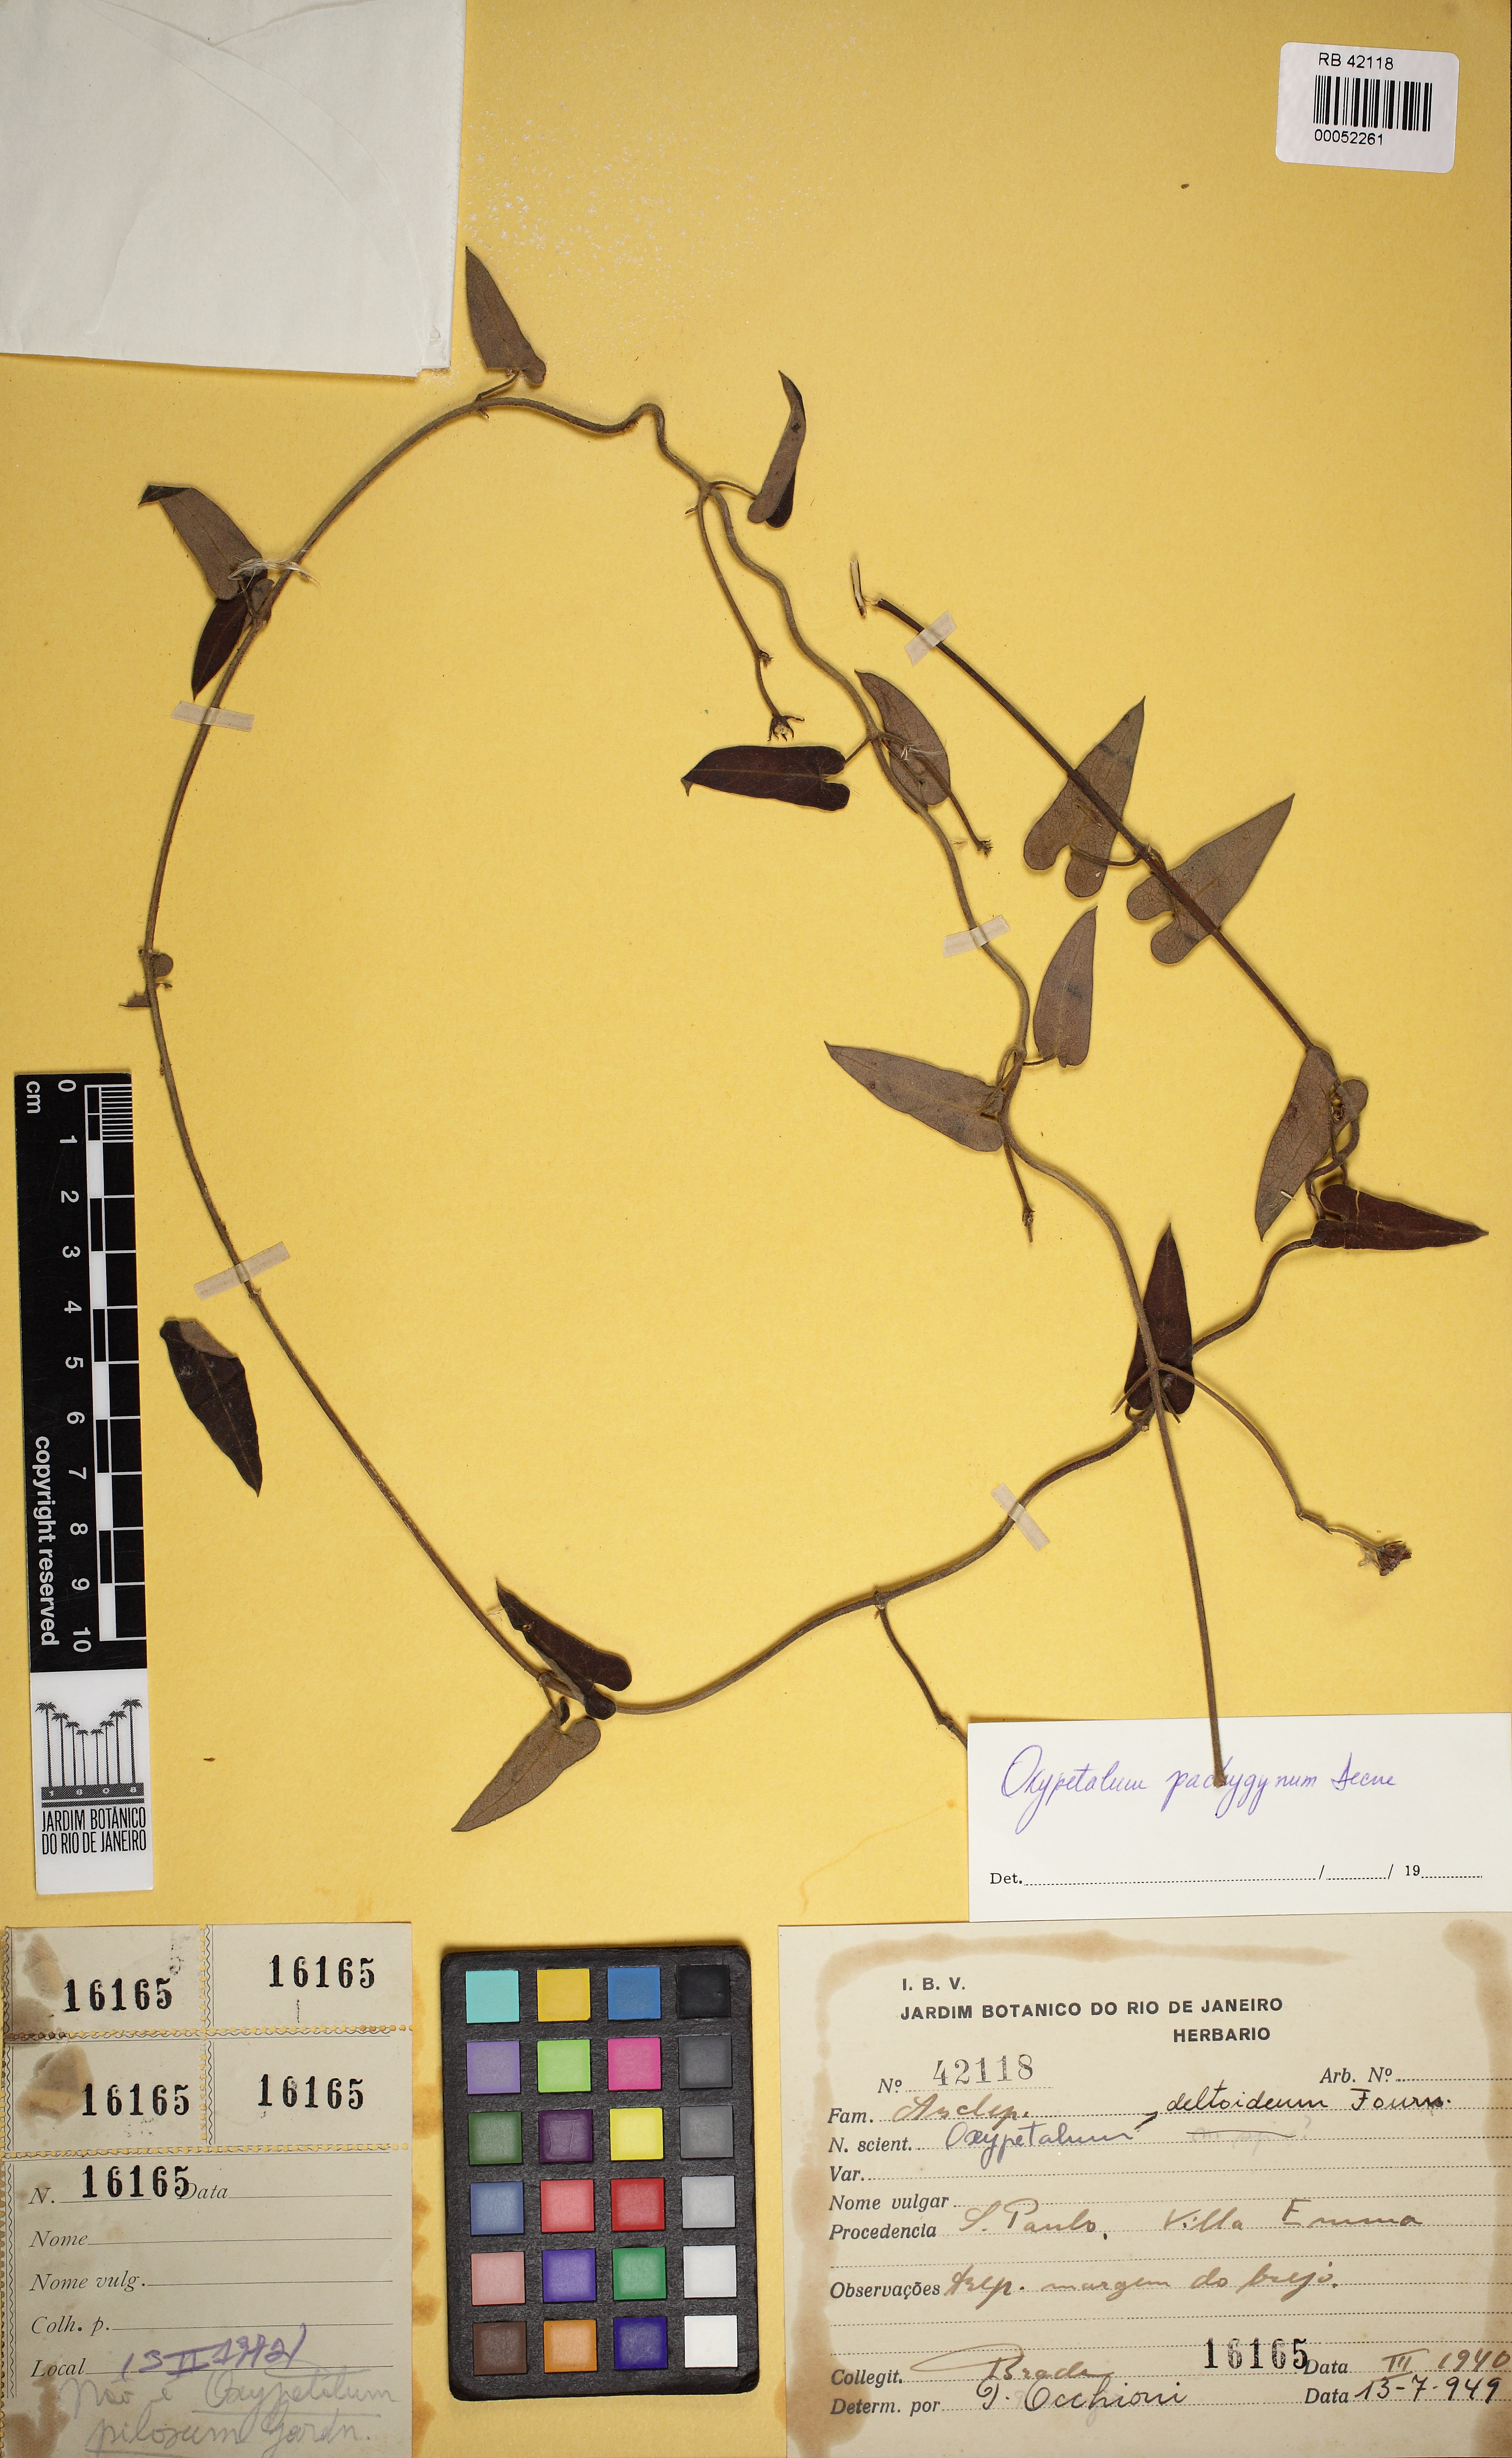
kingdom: Plantae
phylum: Tracheophyta
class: Magnoliopsida
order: Gentianales
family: Apocynaceae
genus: Oxypetalum
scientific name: Oxypetalum pachyglossum
